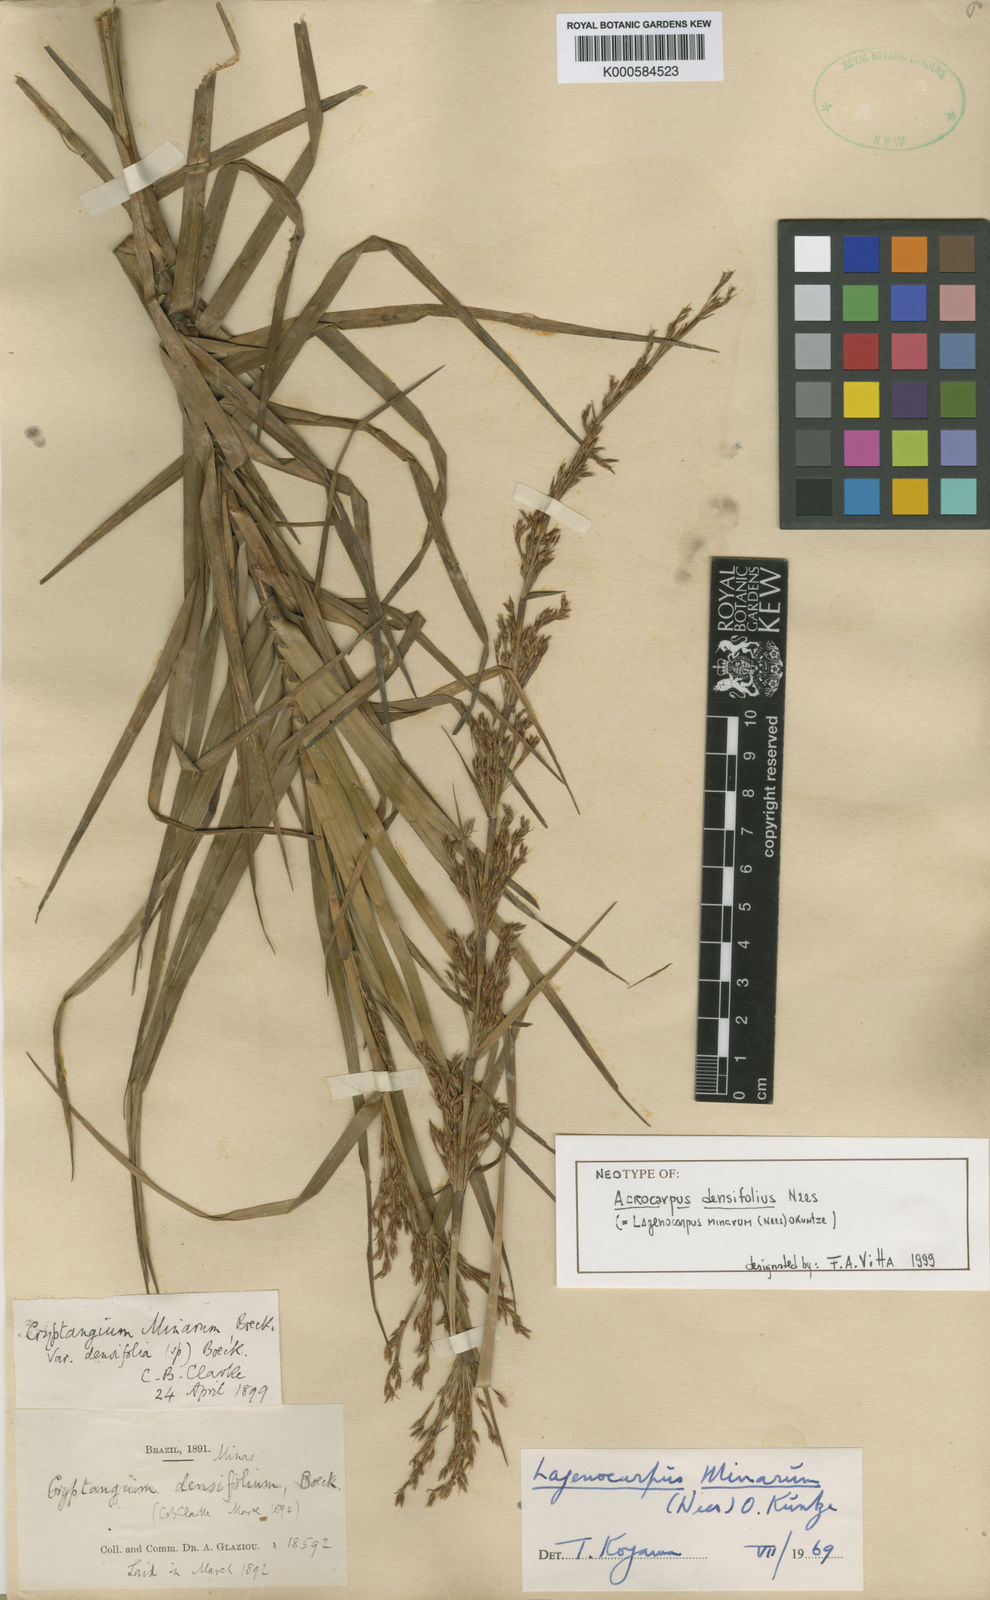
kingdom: Plantae
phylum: Tracheophyta
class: Liliopsida
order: Poales
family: Cyperaceae
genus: Krenakia
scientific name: Krenakia minarum
